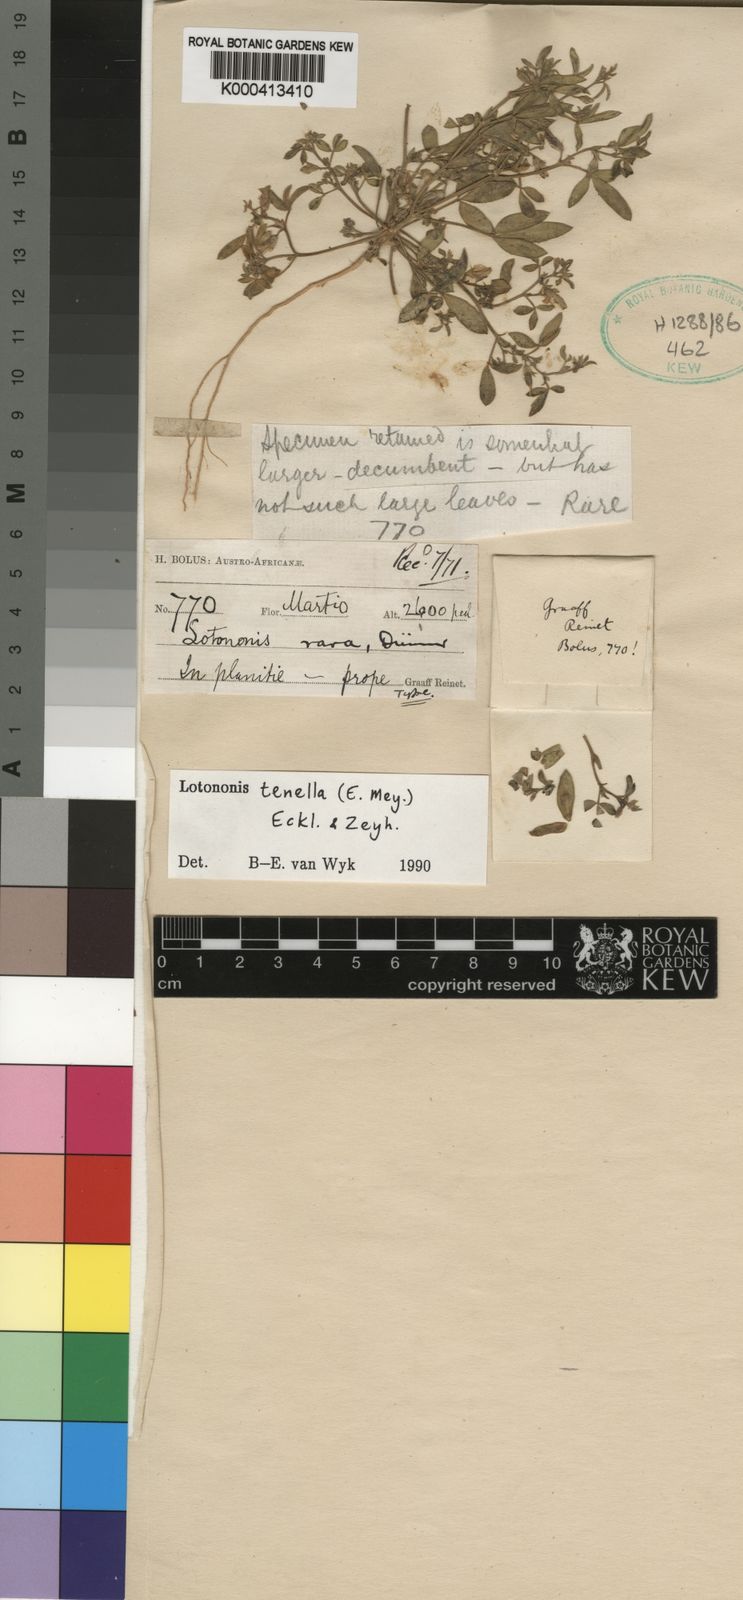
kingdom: Plantae
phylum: Tracheophyta
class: Magnoliopsida
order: Fabales
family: Fabaceae
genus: Lotononis
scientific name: Lotononis tenella
